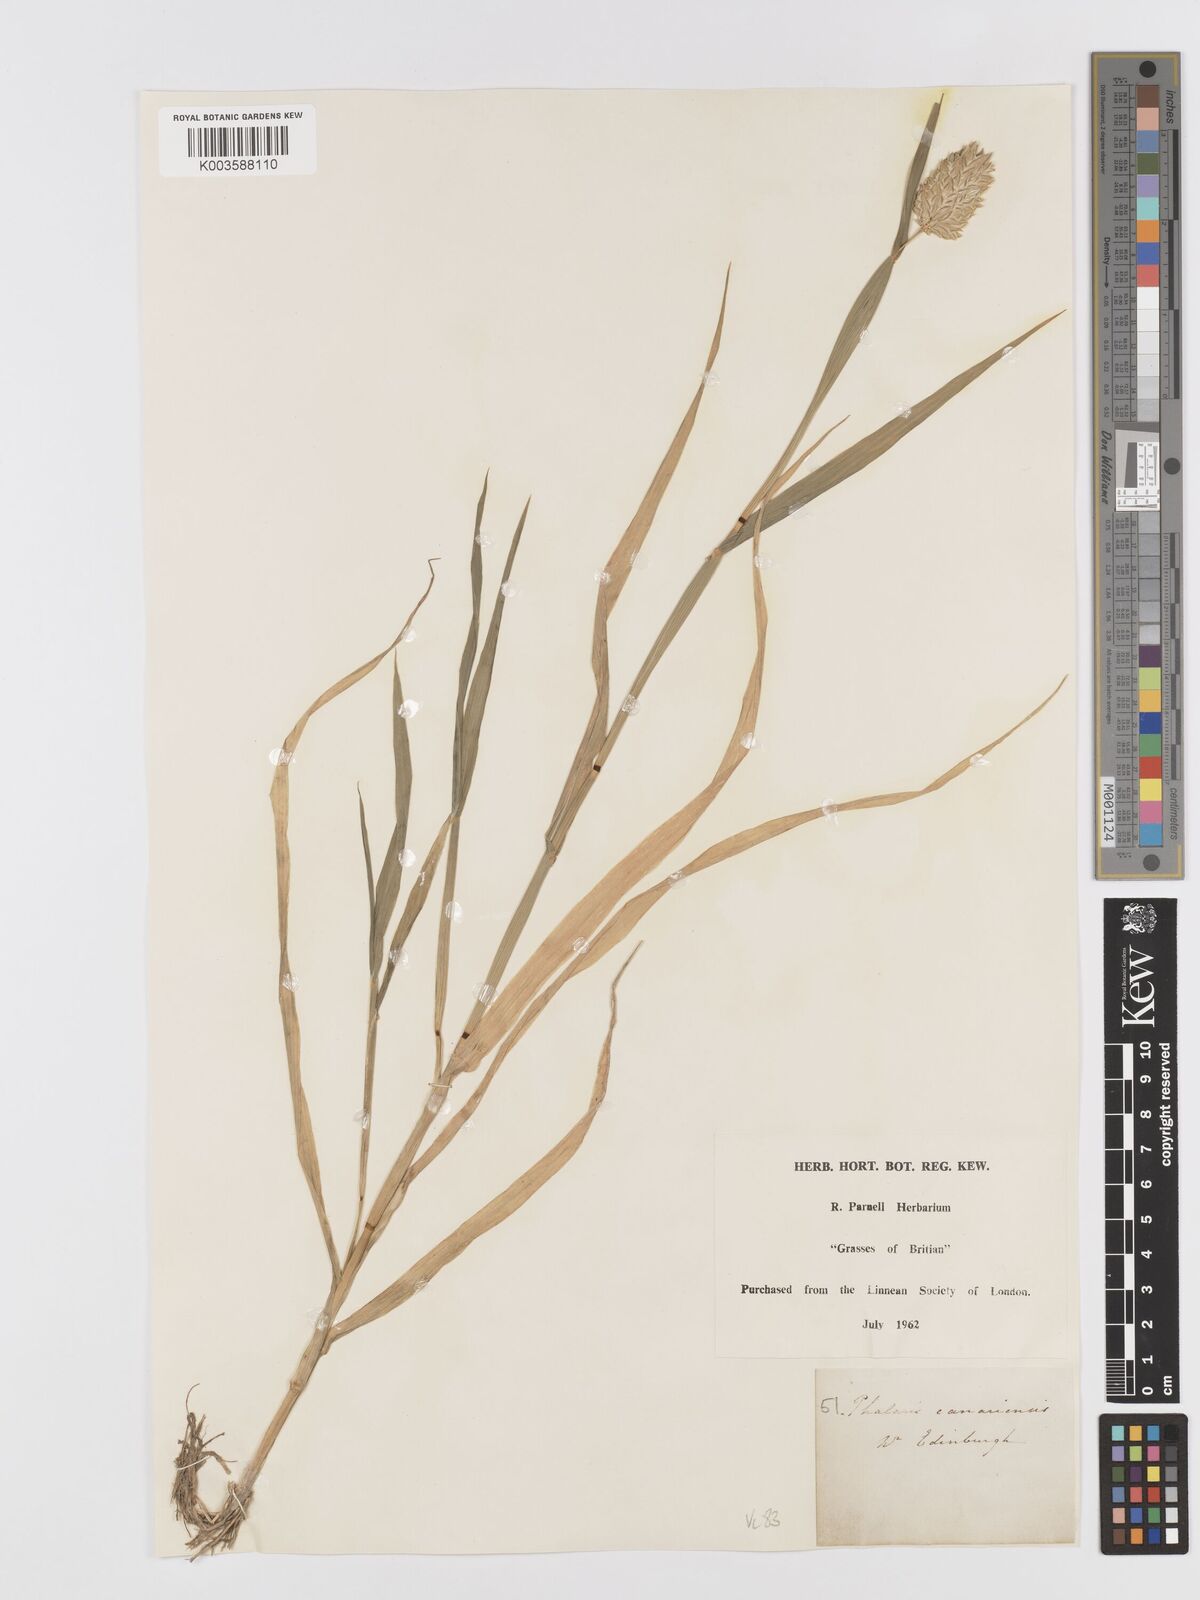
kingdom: Plantae
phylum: Tracheophyta
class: Liliopsida
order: Poales
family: Poaceae
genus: Phalaris
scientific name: Phalaris canariensis
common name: Annual canarygrass
